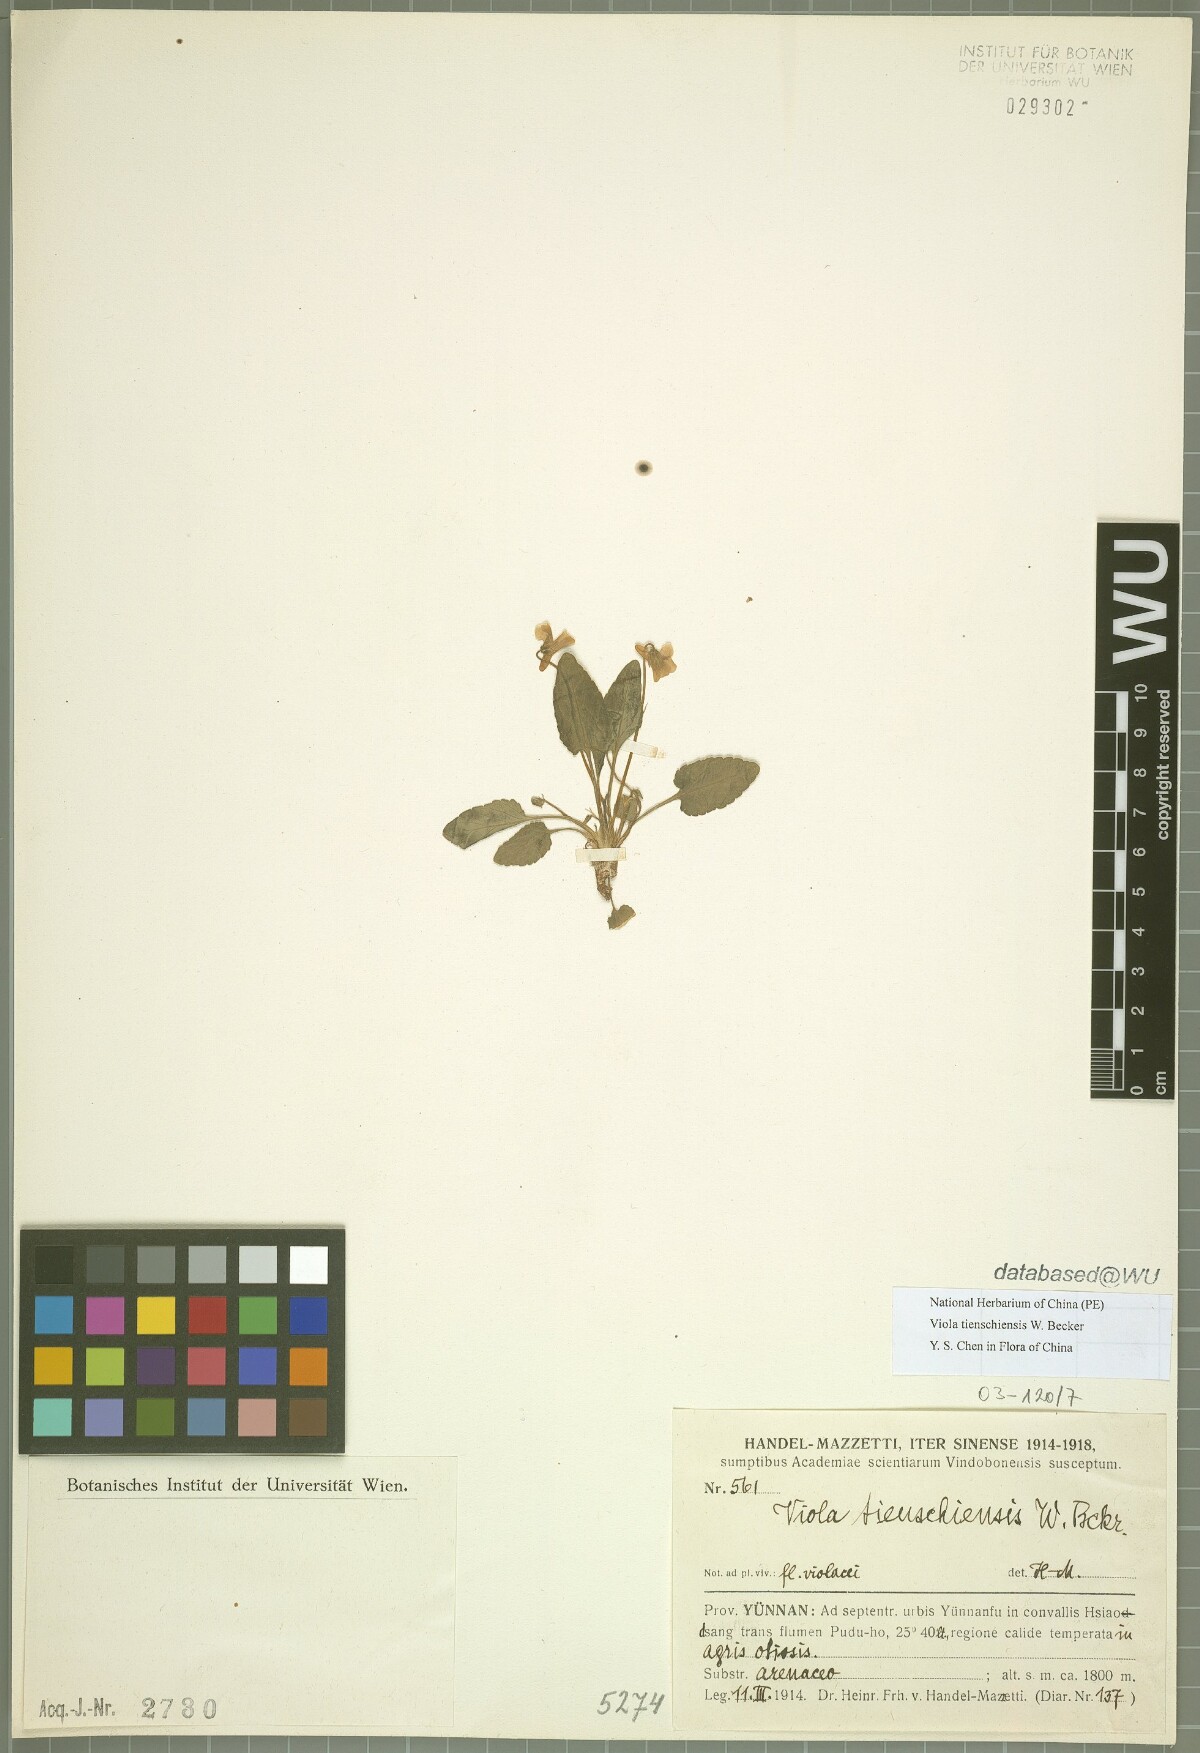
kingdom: Plantae
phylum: Tracheophyta
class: Magnoliopsida
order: Malpighiales
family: Violaceae
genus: Viola
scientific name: Viola tienschiensis
